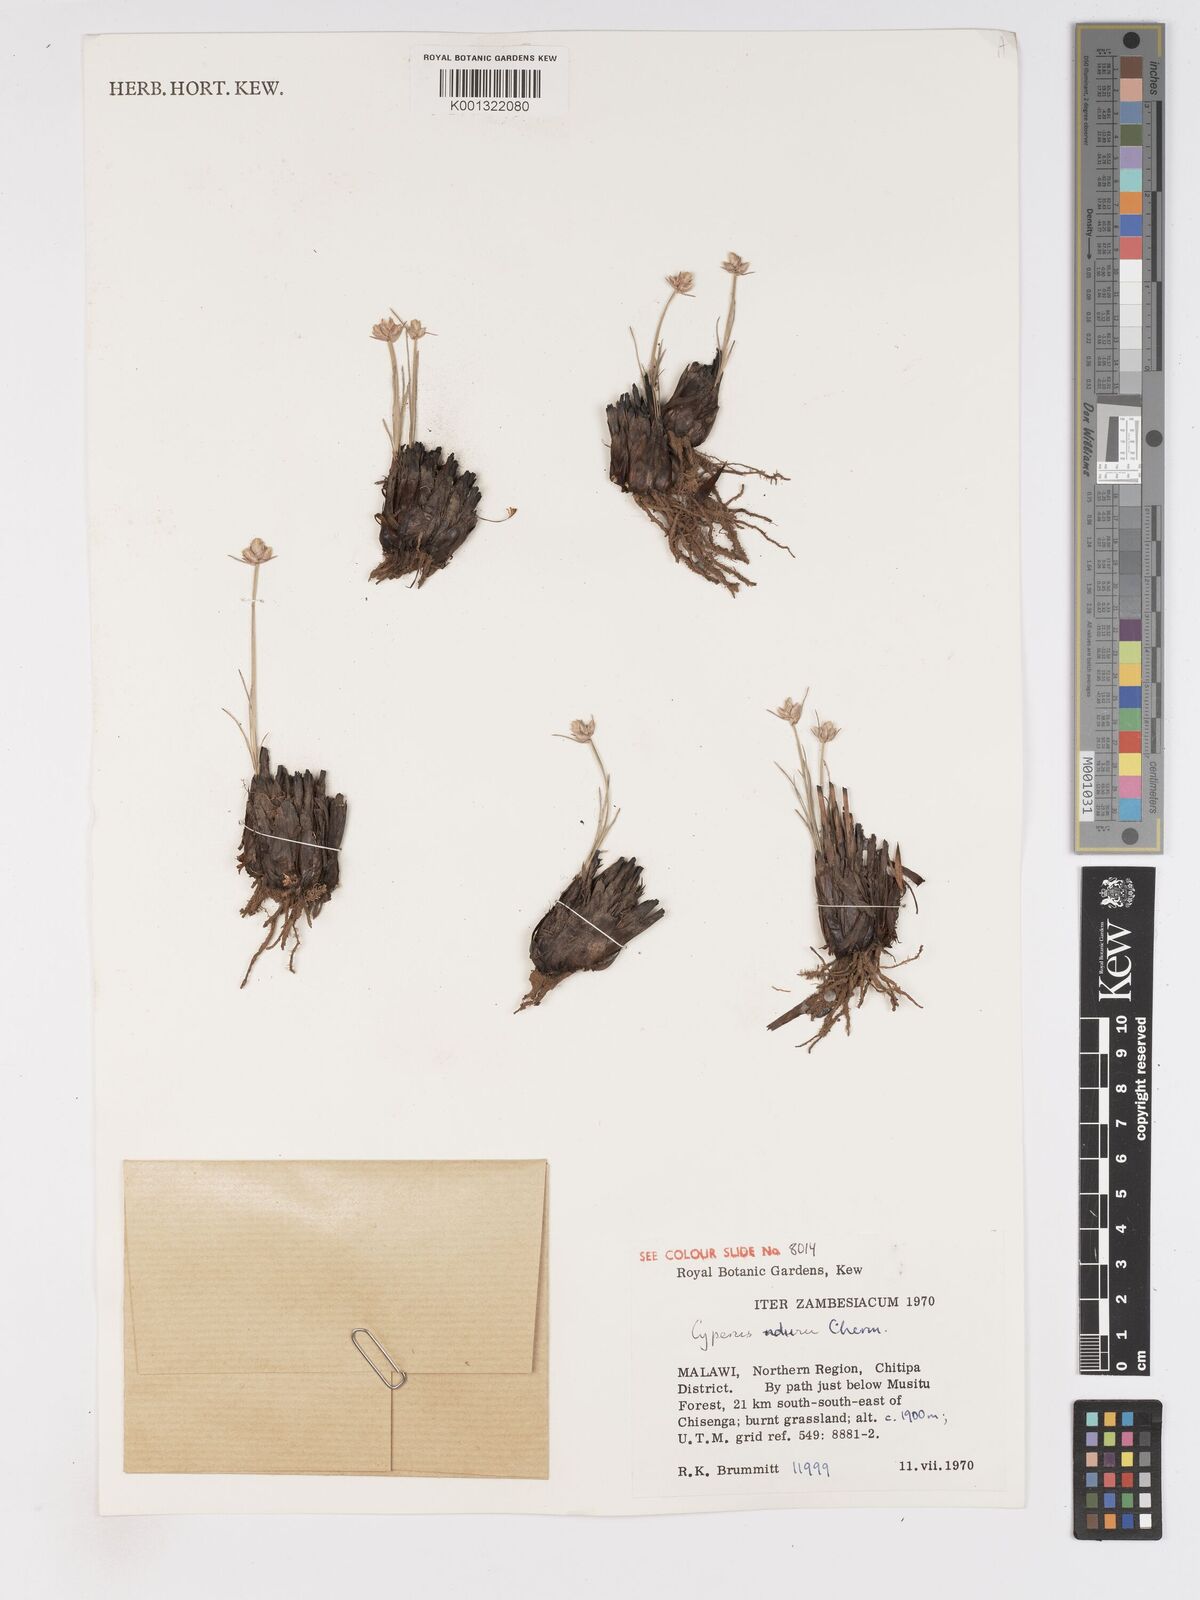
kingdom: Plantae
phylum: Tracheophyta
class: Liliopsida
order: Poales
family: Cyperaceae
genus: Cyperus
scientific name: Cyperus nduru
